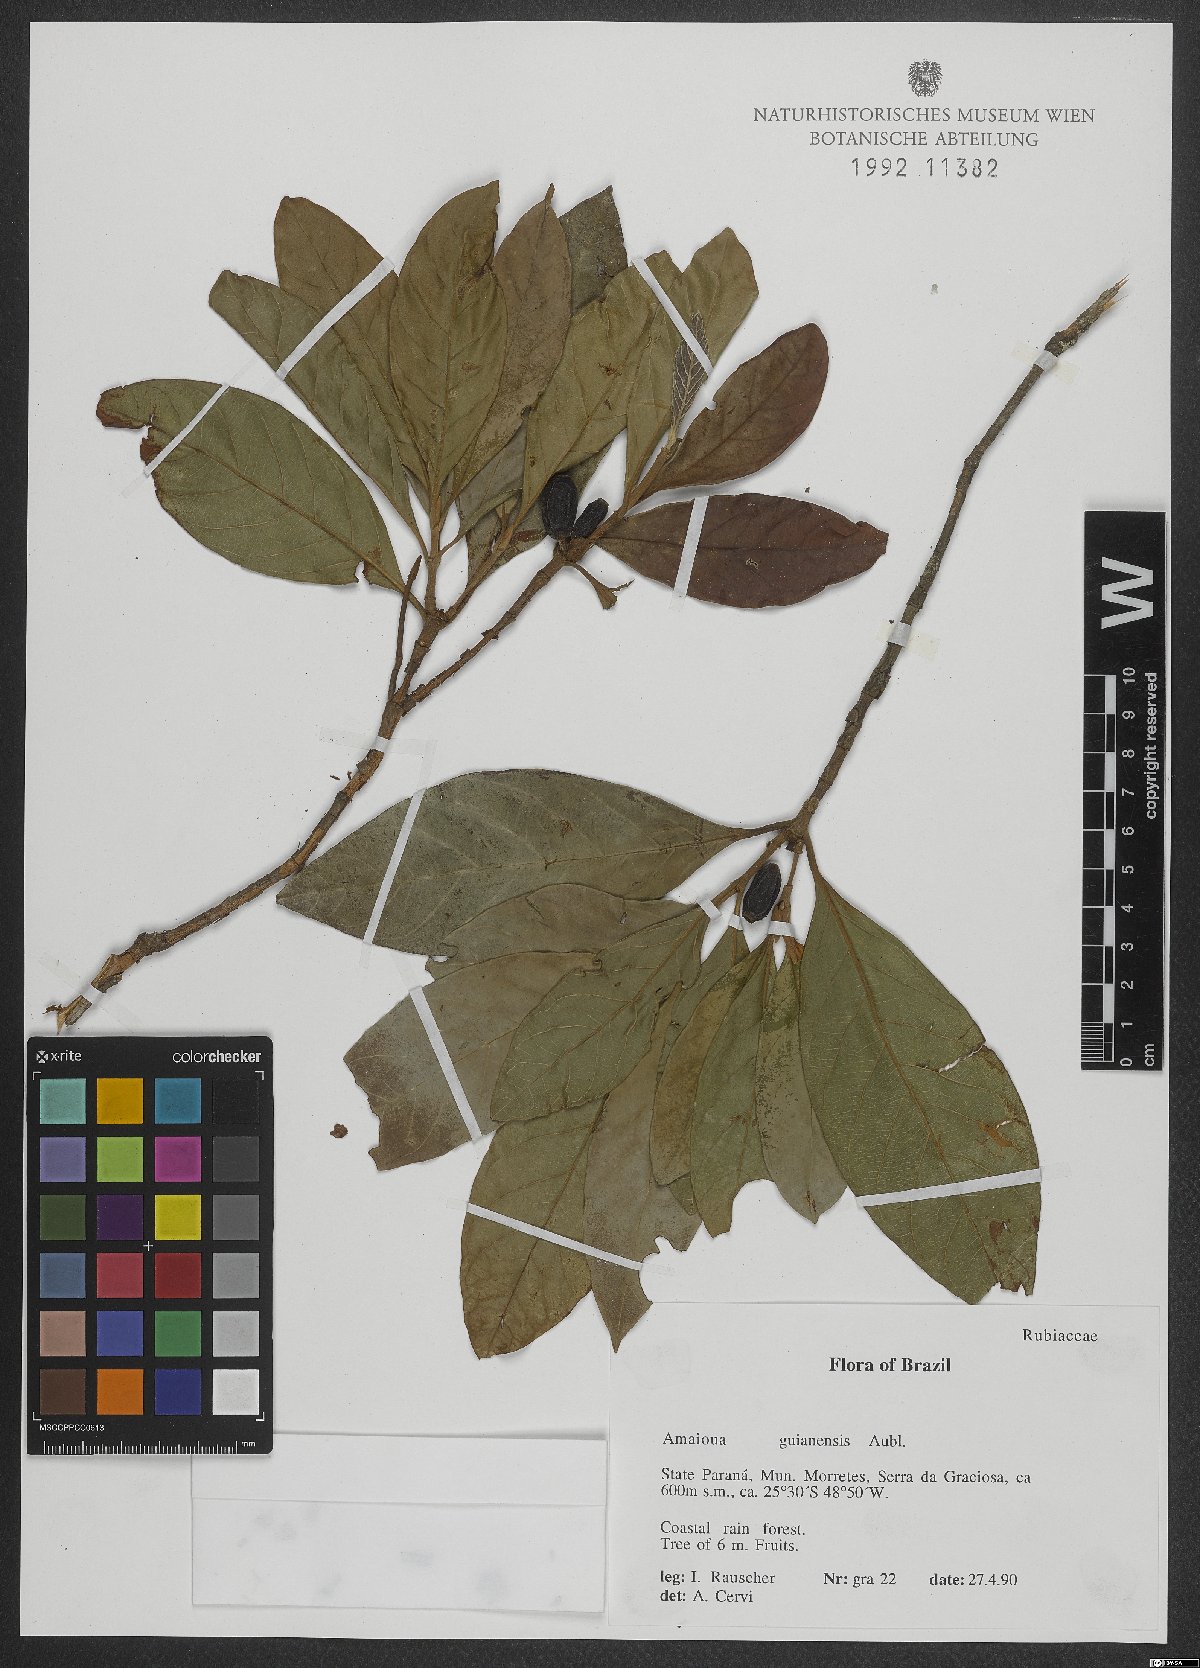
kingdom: Plantae
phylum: Tracheophyta
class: Magnoliopsida
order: Gentianales
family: Rubiaceae
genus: Amaioua
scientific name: Amaioua guianensis
